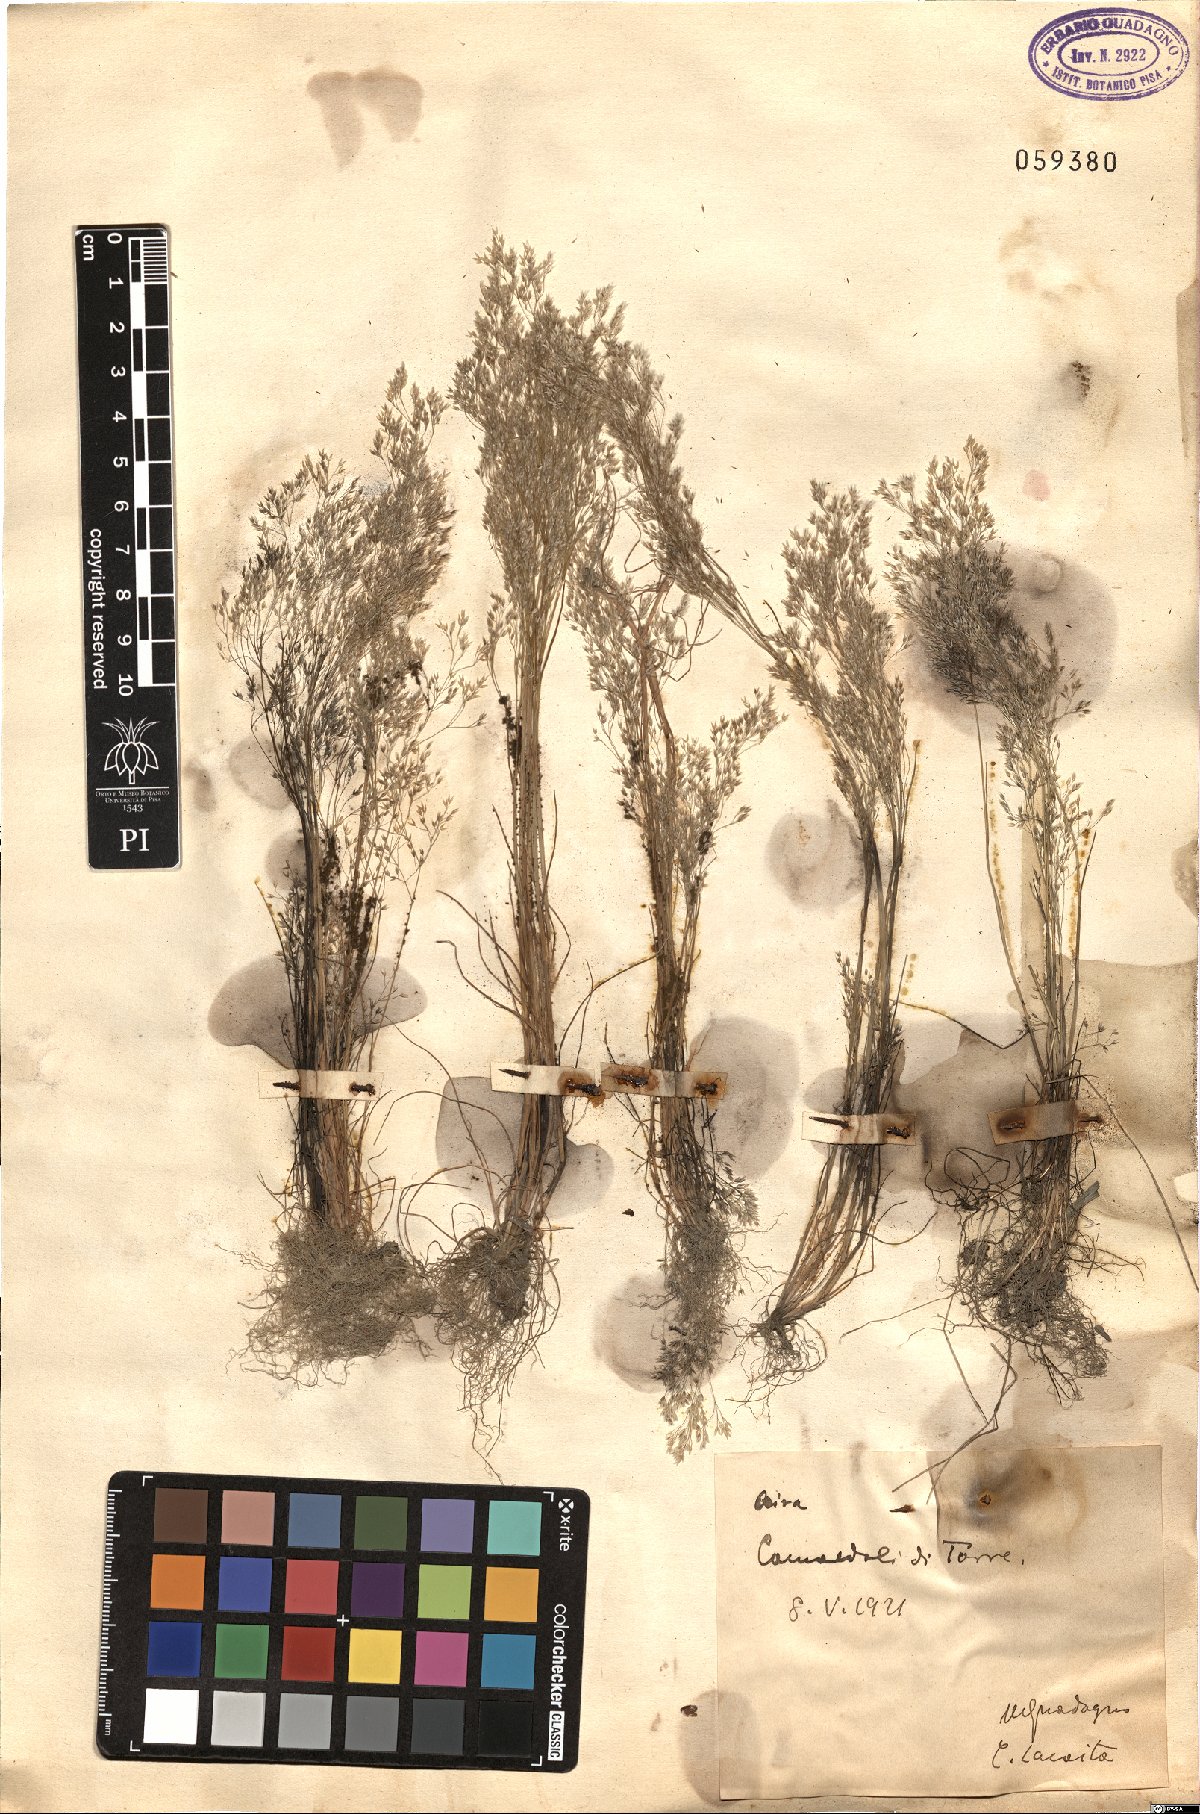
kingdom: Plantae
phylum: Tracheophyta
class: Liliopsida
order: Poales
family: Poaceae
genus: Aira
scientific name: Aira
